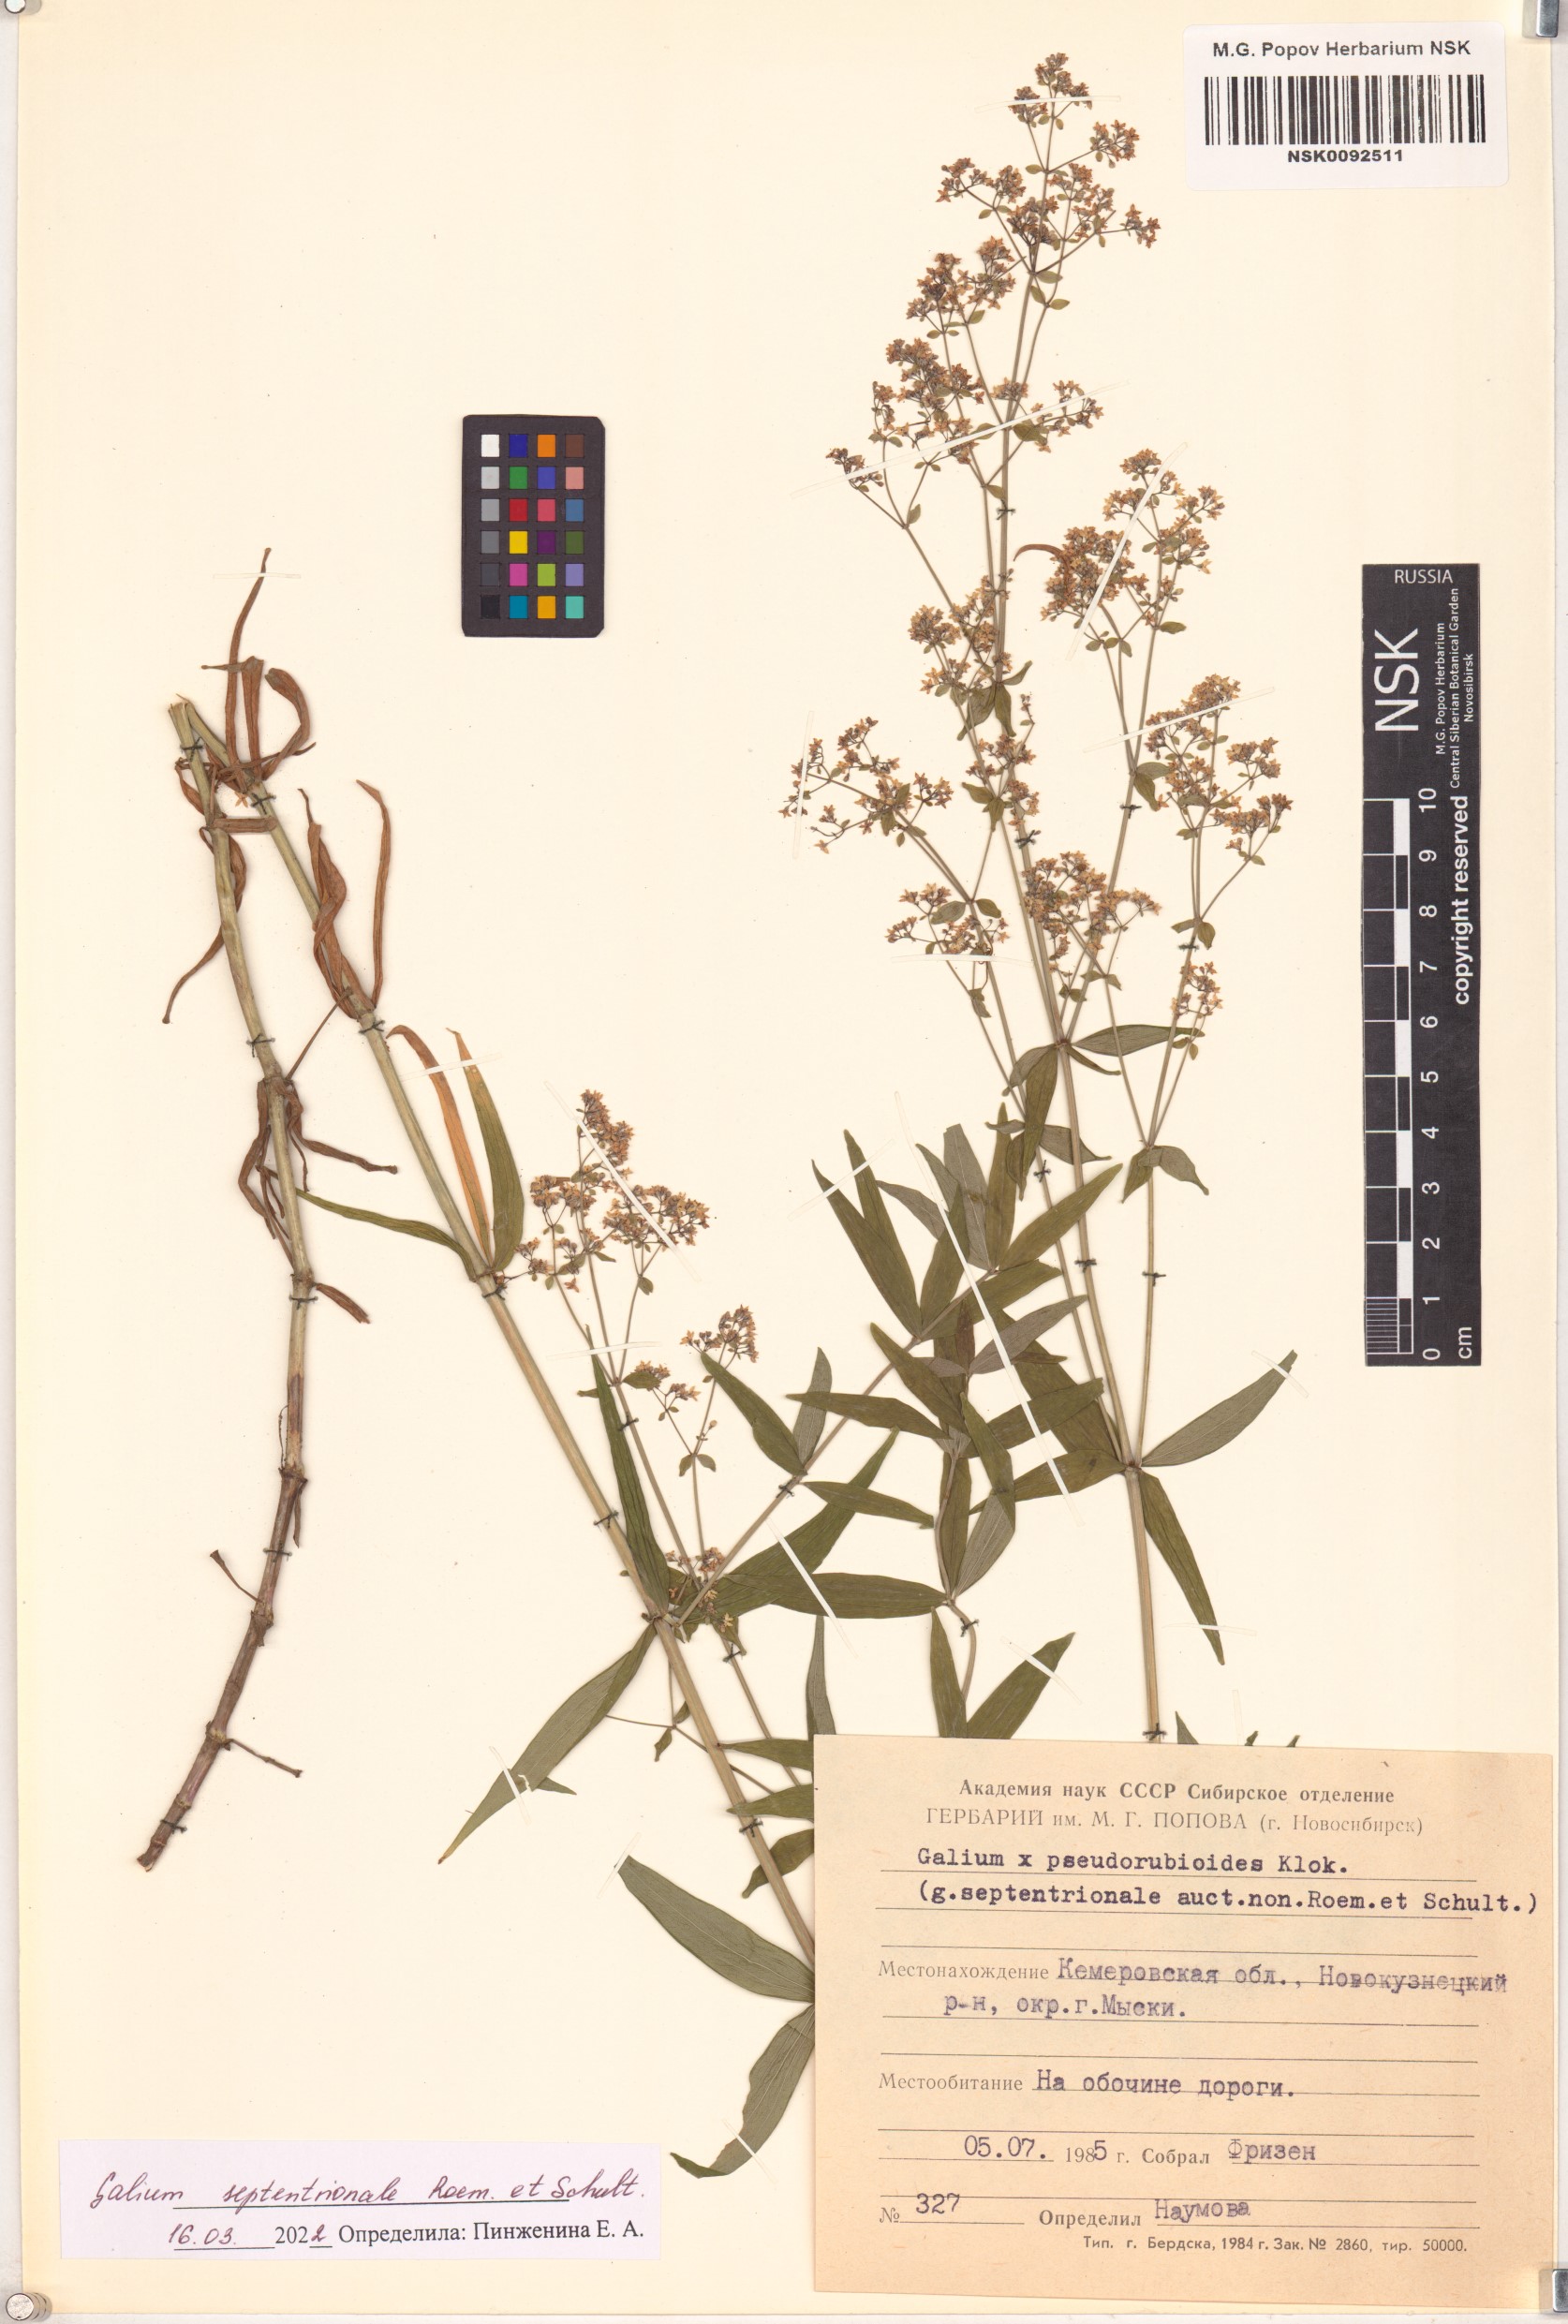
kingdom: Plantae
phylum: Tracheophyta
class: Magnoliopsida
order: Gentianales
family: Rubiaceae
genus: Galium
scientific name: Galium boreale
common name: Northern bedstraw
